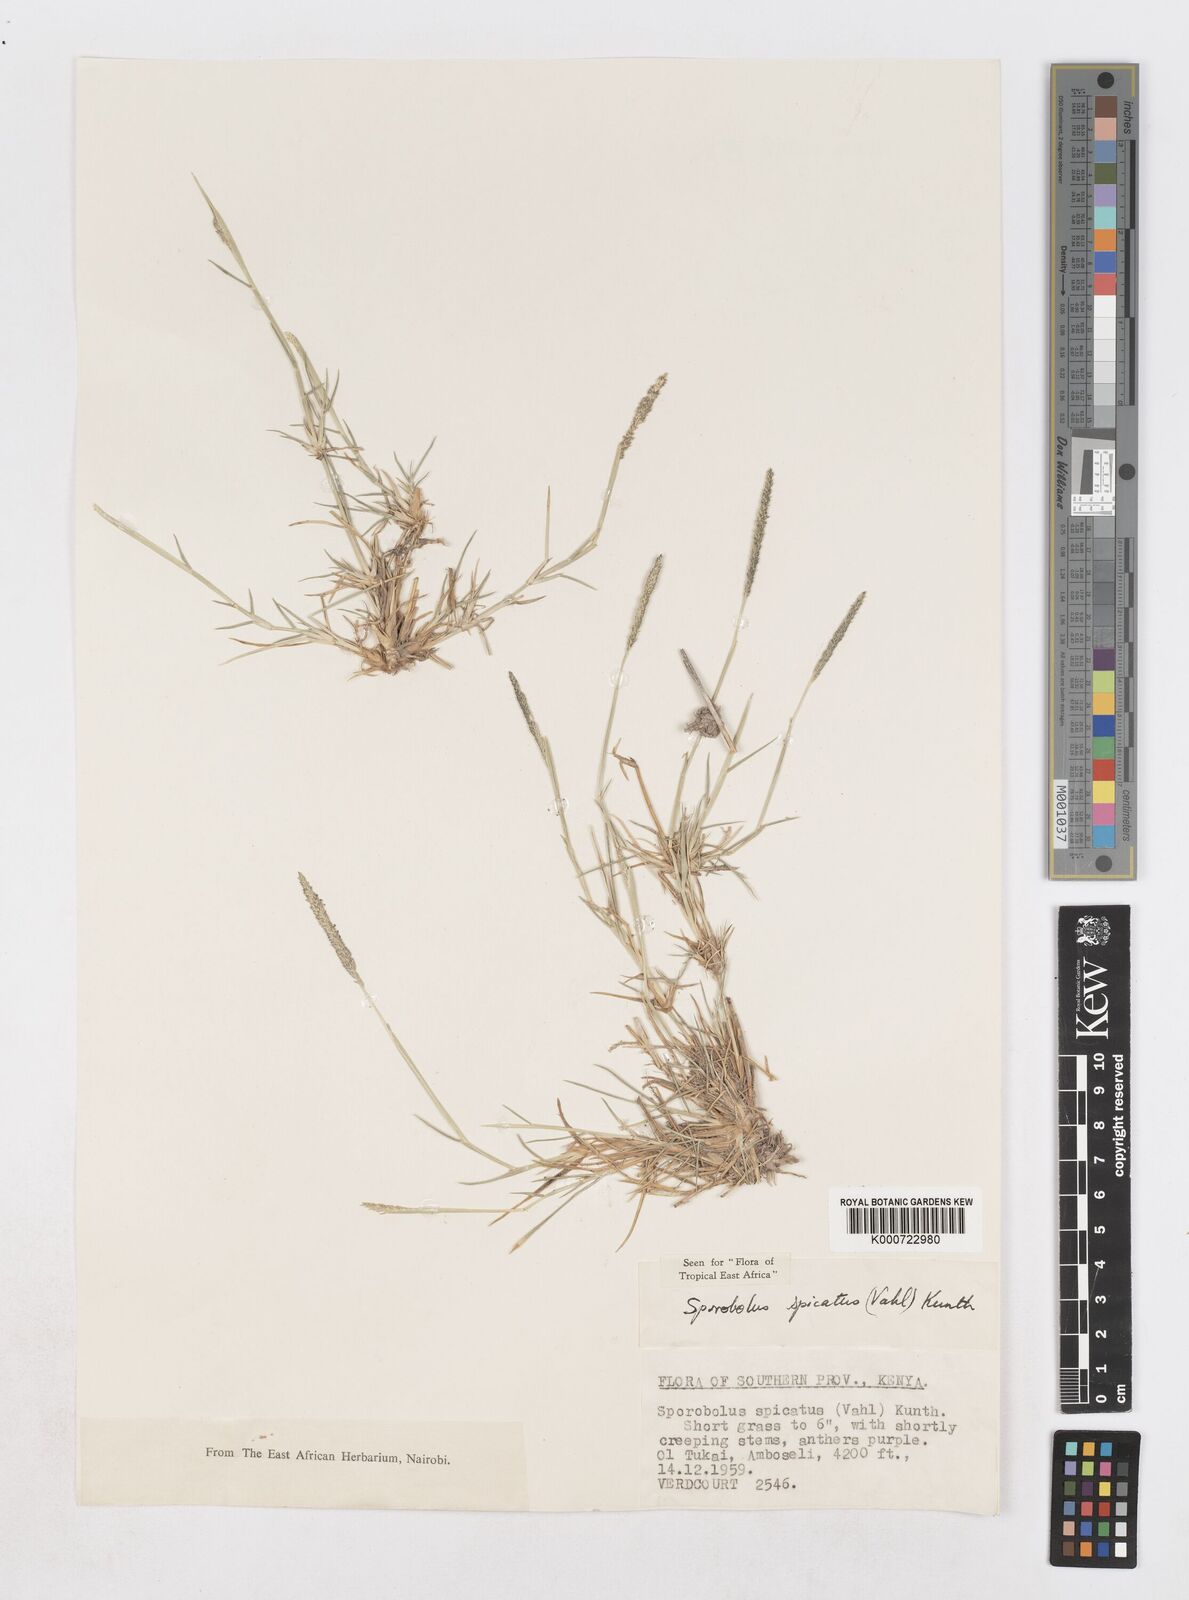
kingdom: Plantae
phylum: Tracheophyta
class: Liliopsida
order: Poales
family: Poaceae
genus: Sporobolus
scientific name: Sporobolus spicatus
